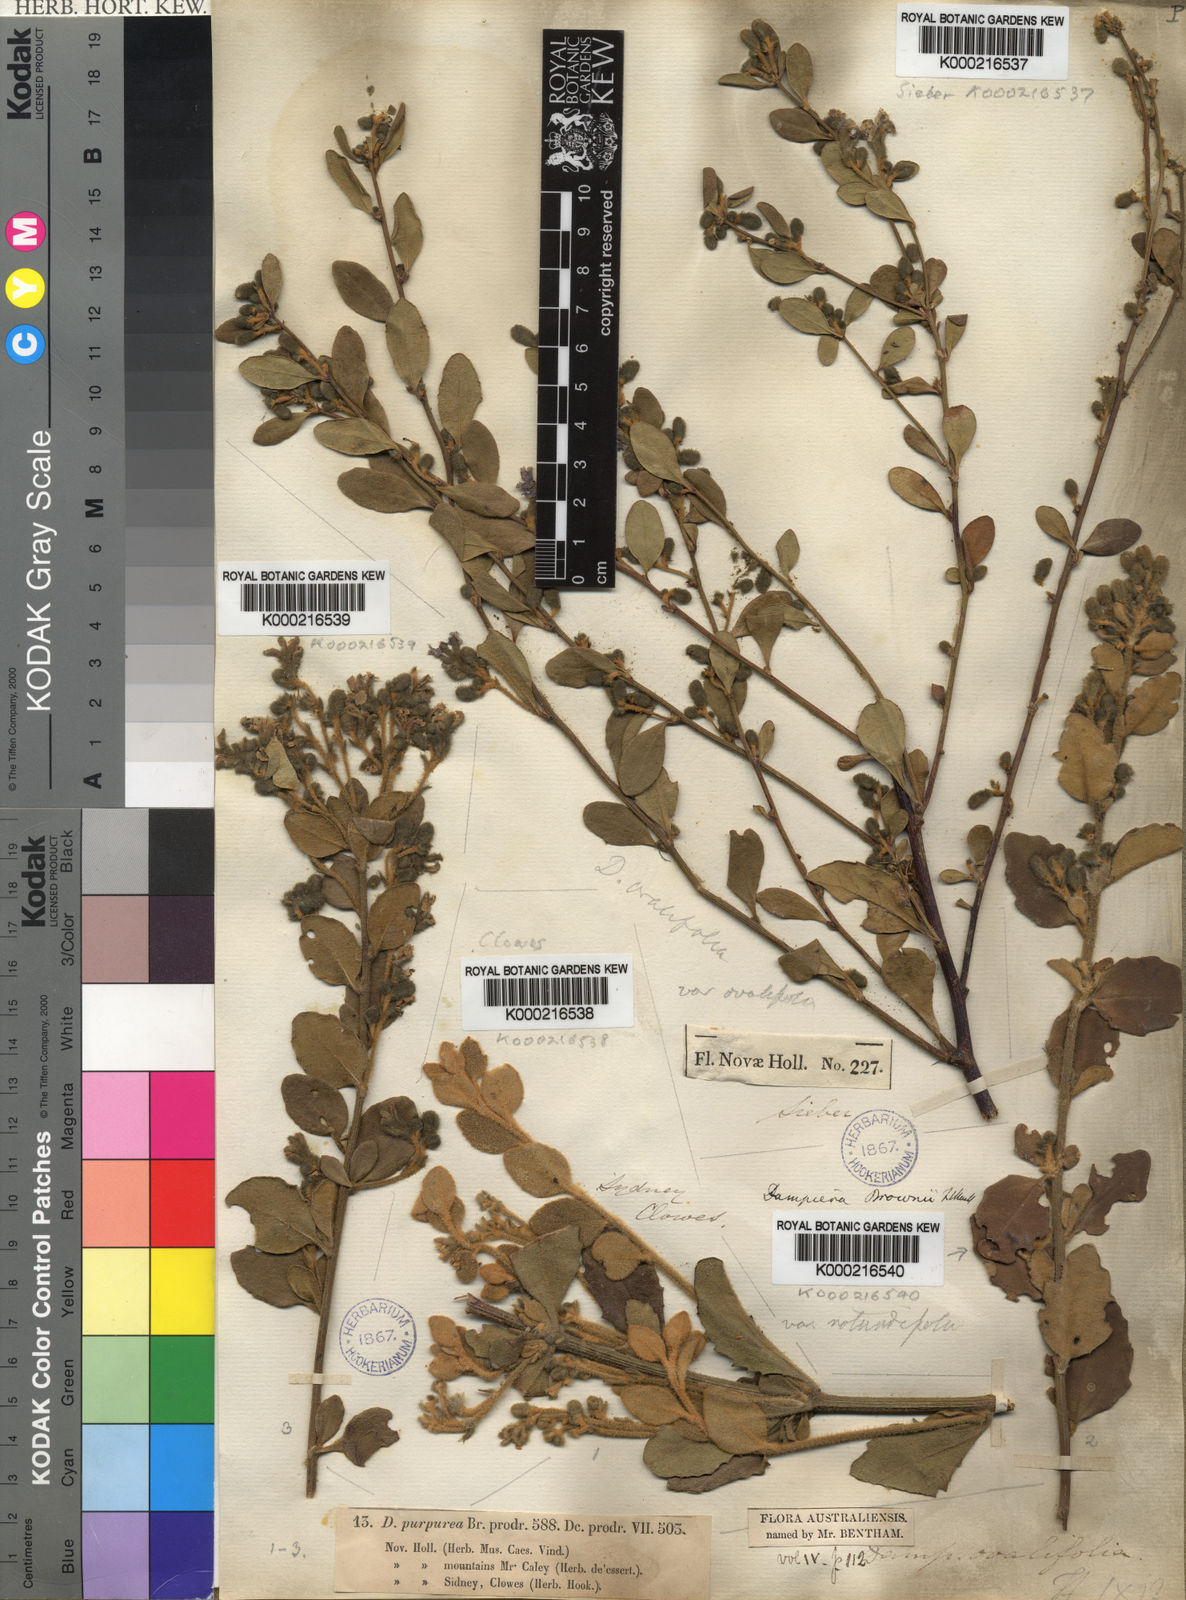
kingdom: Plantae
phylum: Tracheophyta
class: Magnoliopsida
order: Asterales
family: Goodeniaceae
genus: Dampiera
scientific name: Dampiera purpurea
